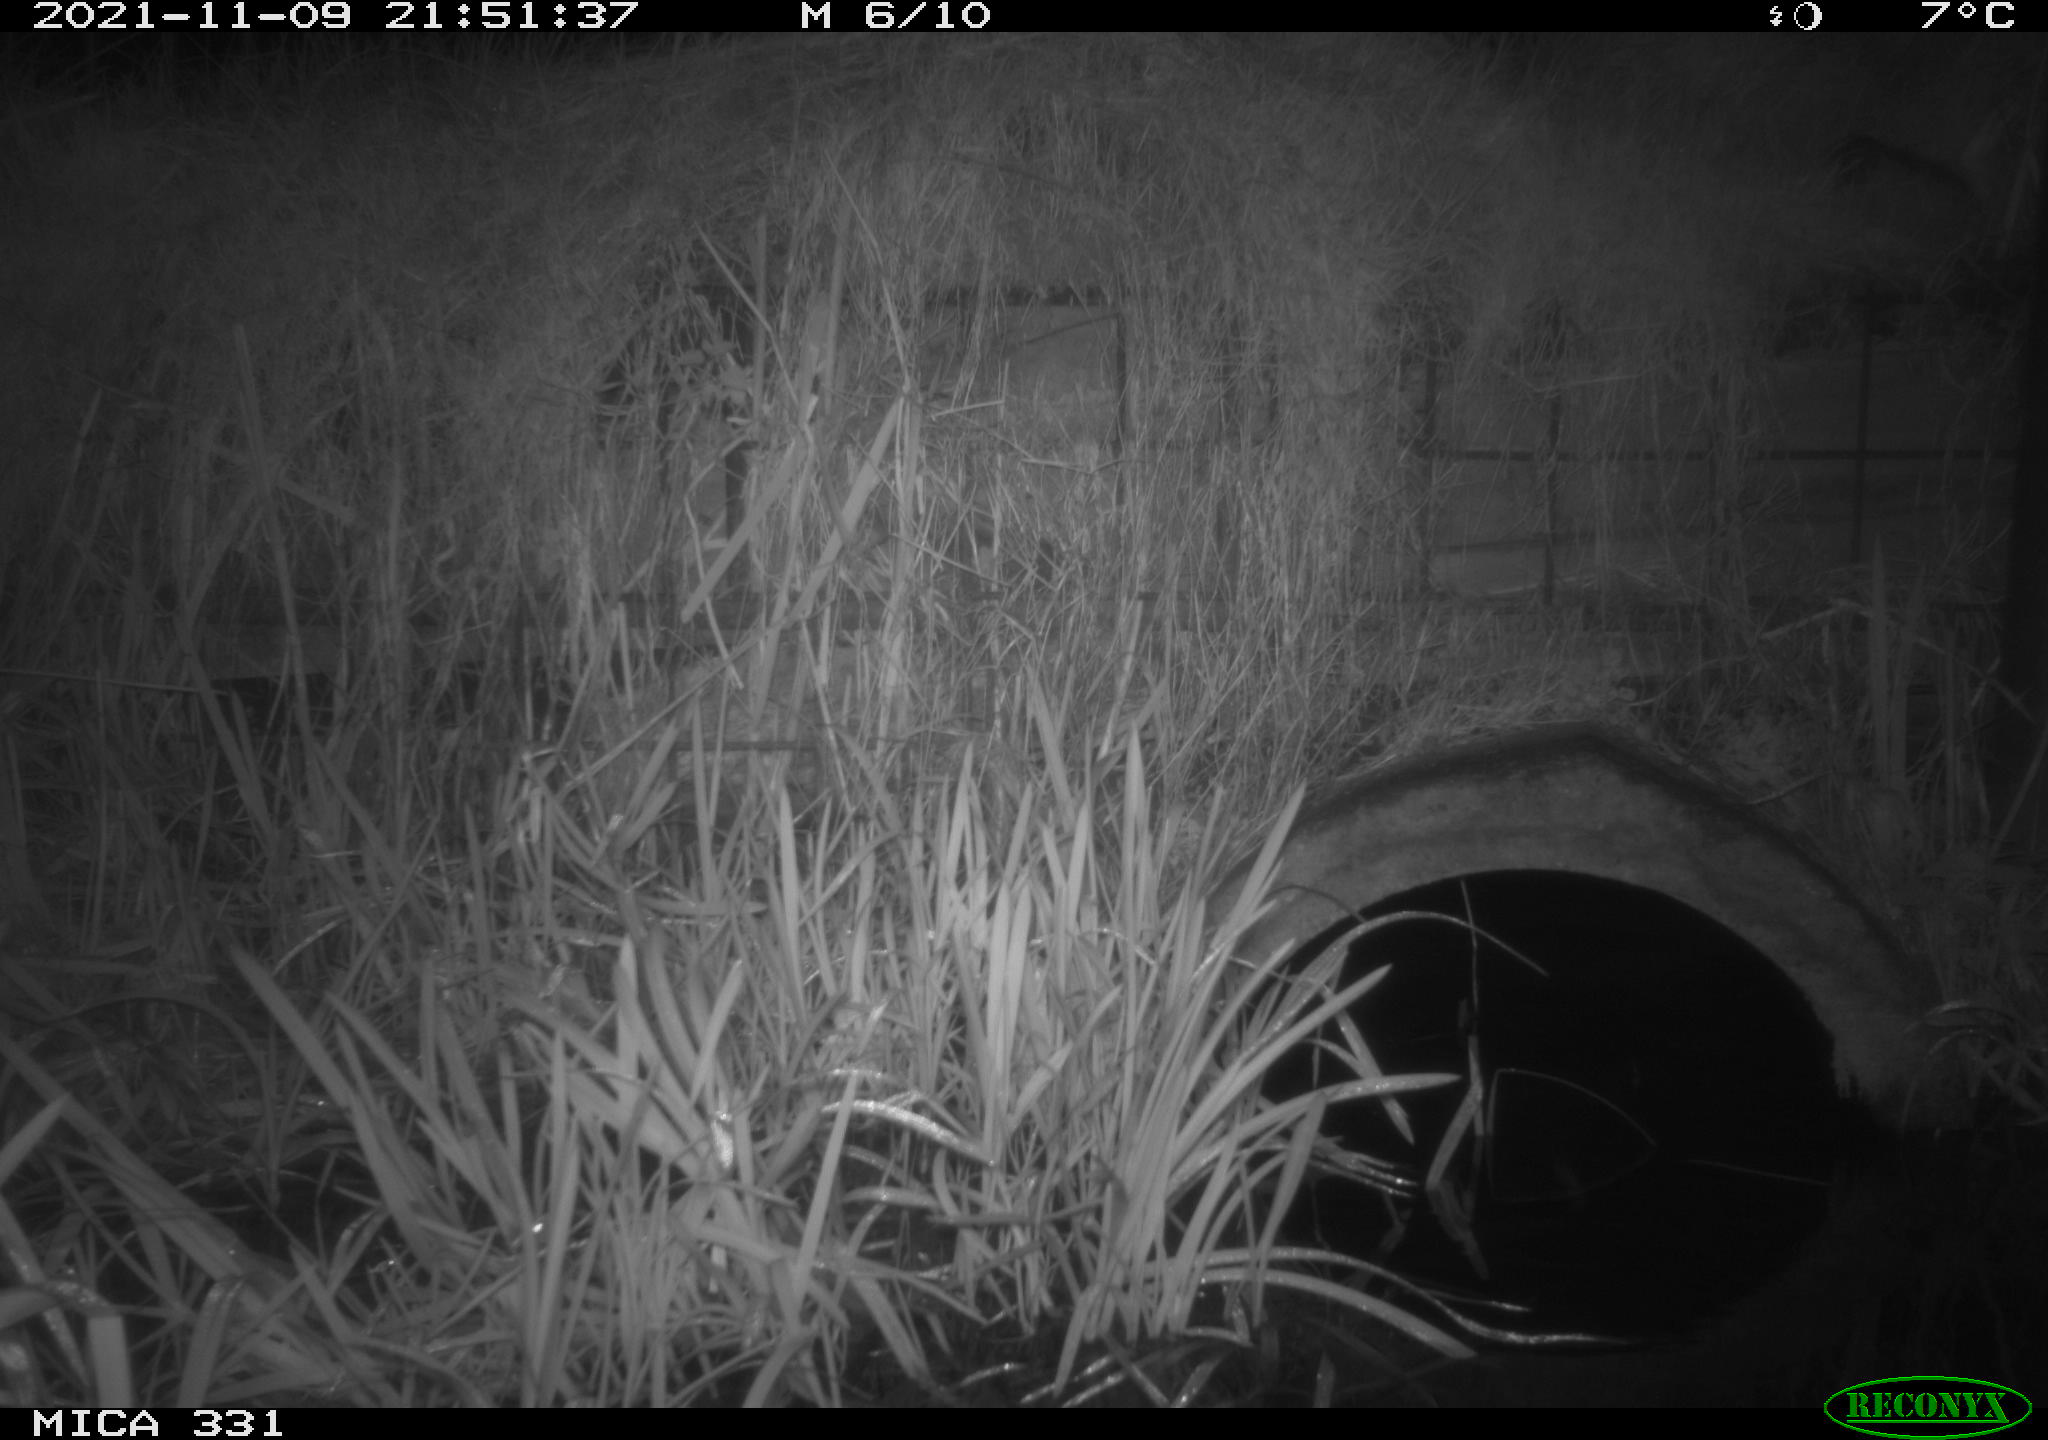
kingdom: Animalia
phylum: Chordata
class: Mammalia
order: Rodentia
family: Muridae
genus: Rattus
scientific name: Rattus norvegicus
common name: Brown rat
